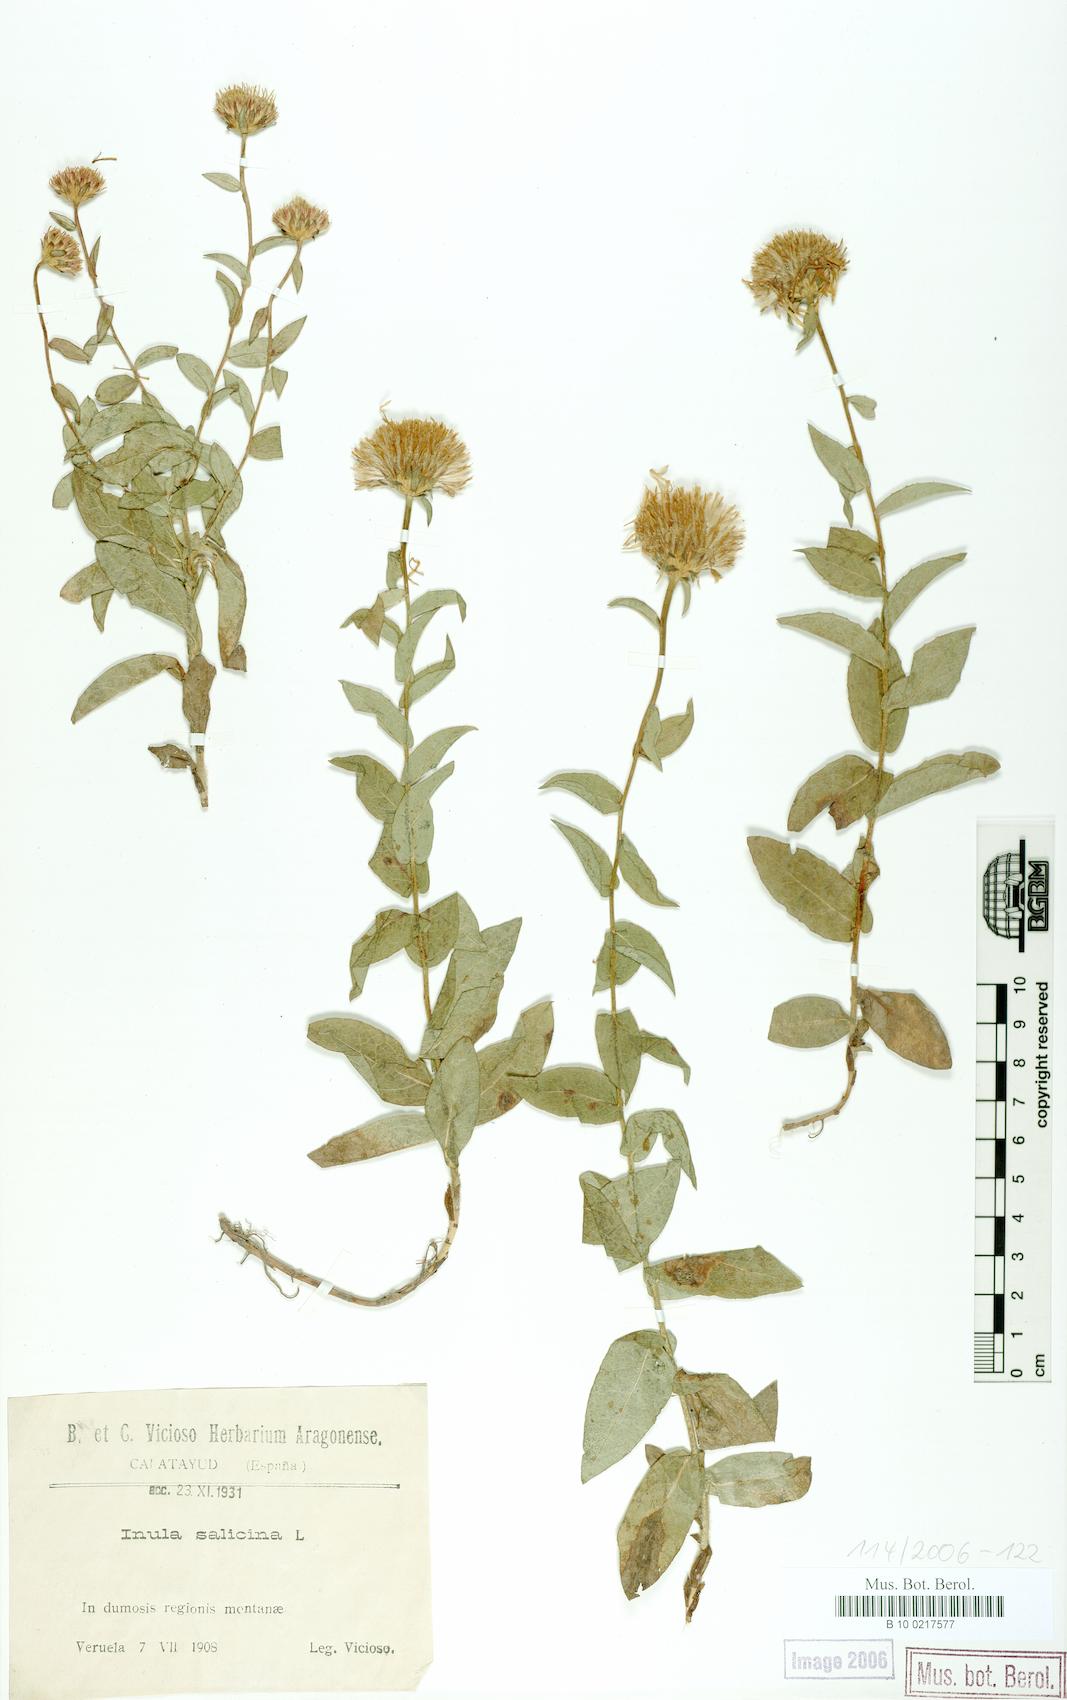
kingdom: Plantae
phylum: Tracheophyta
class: Magnoliopsida
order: Asterales
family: Asteraceae
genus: Pentanema
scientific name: Pentanema salicinum
